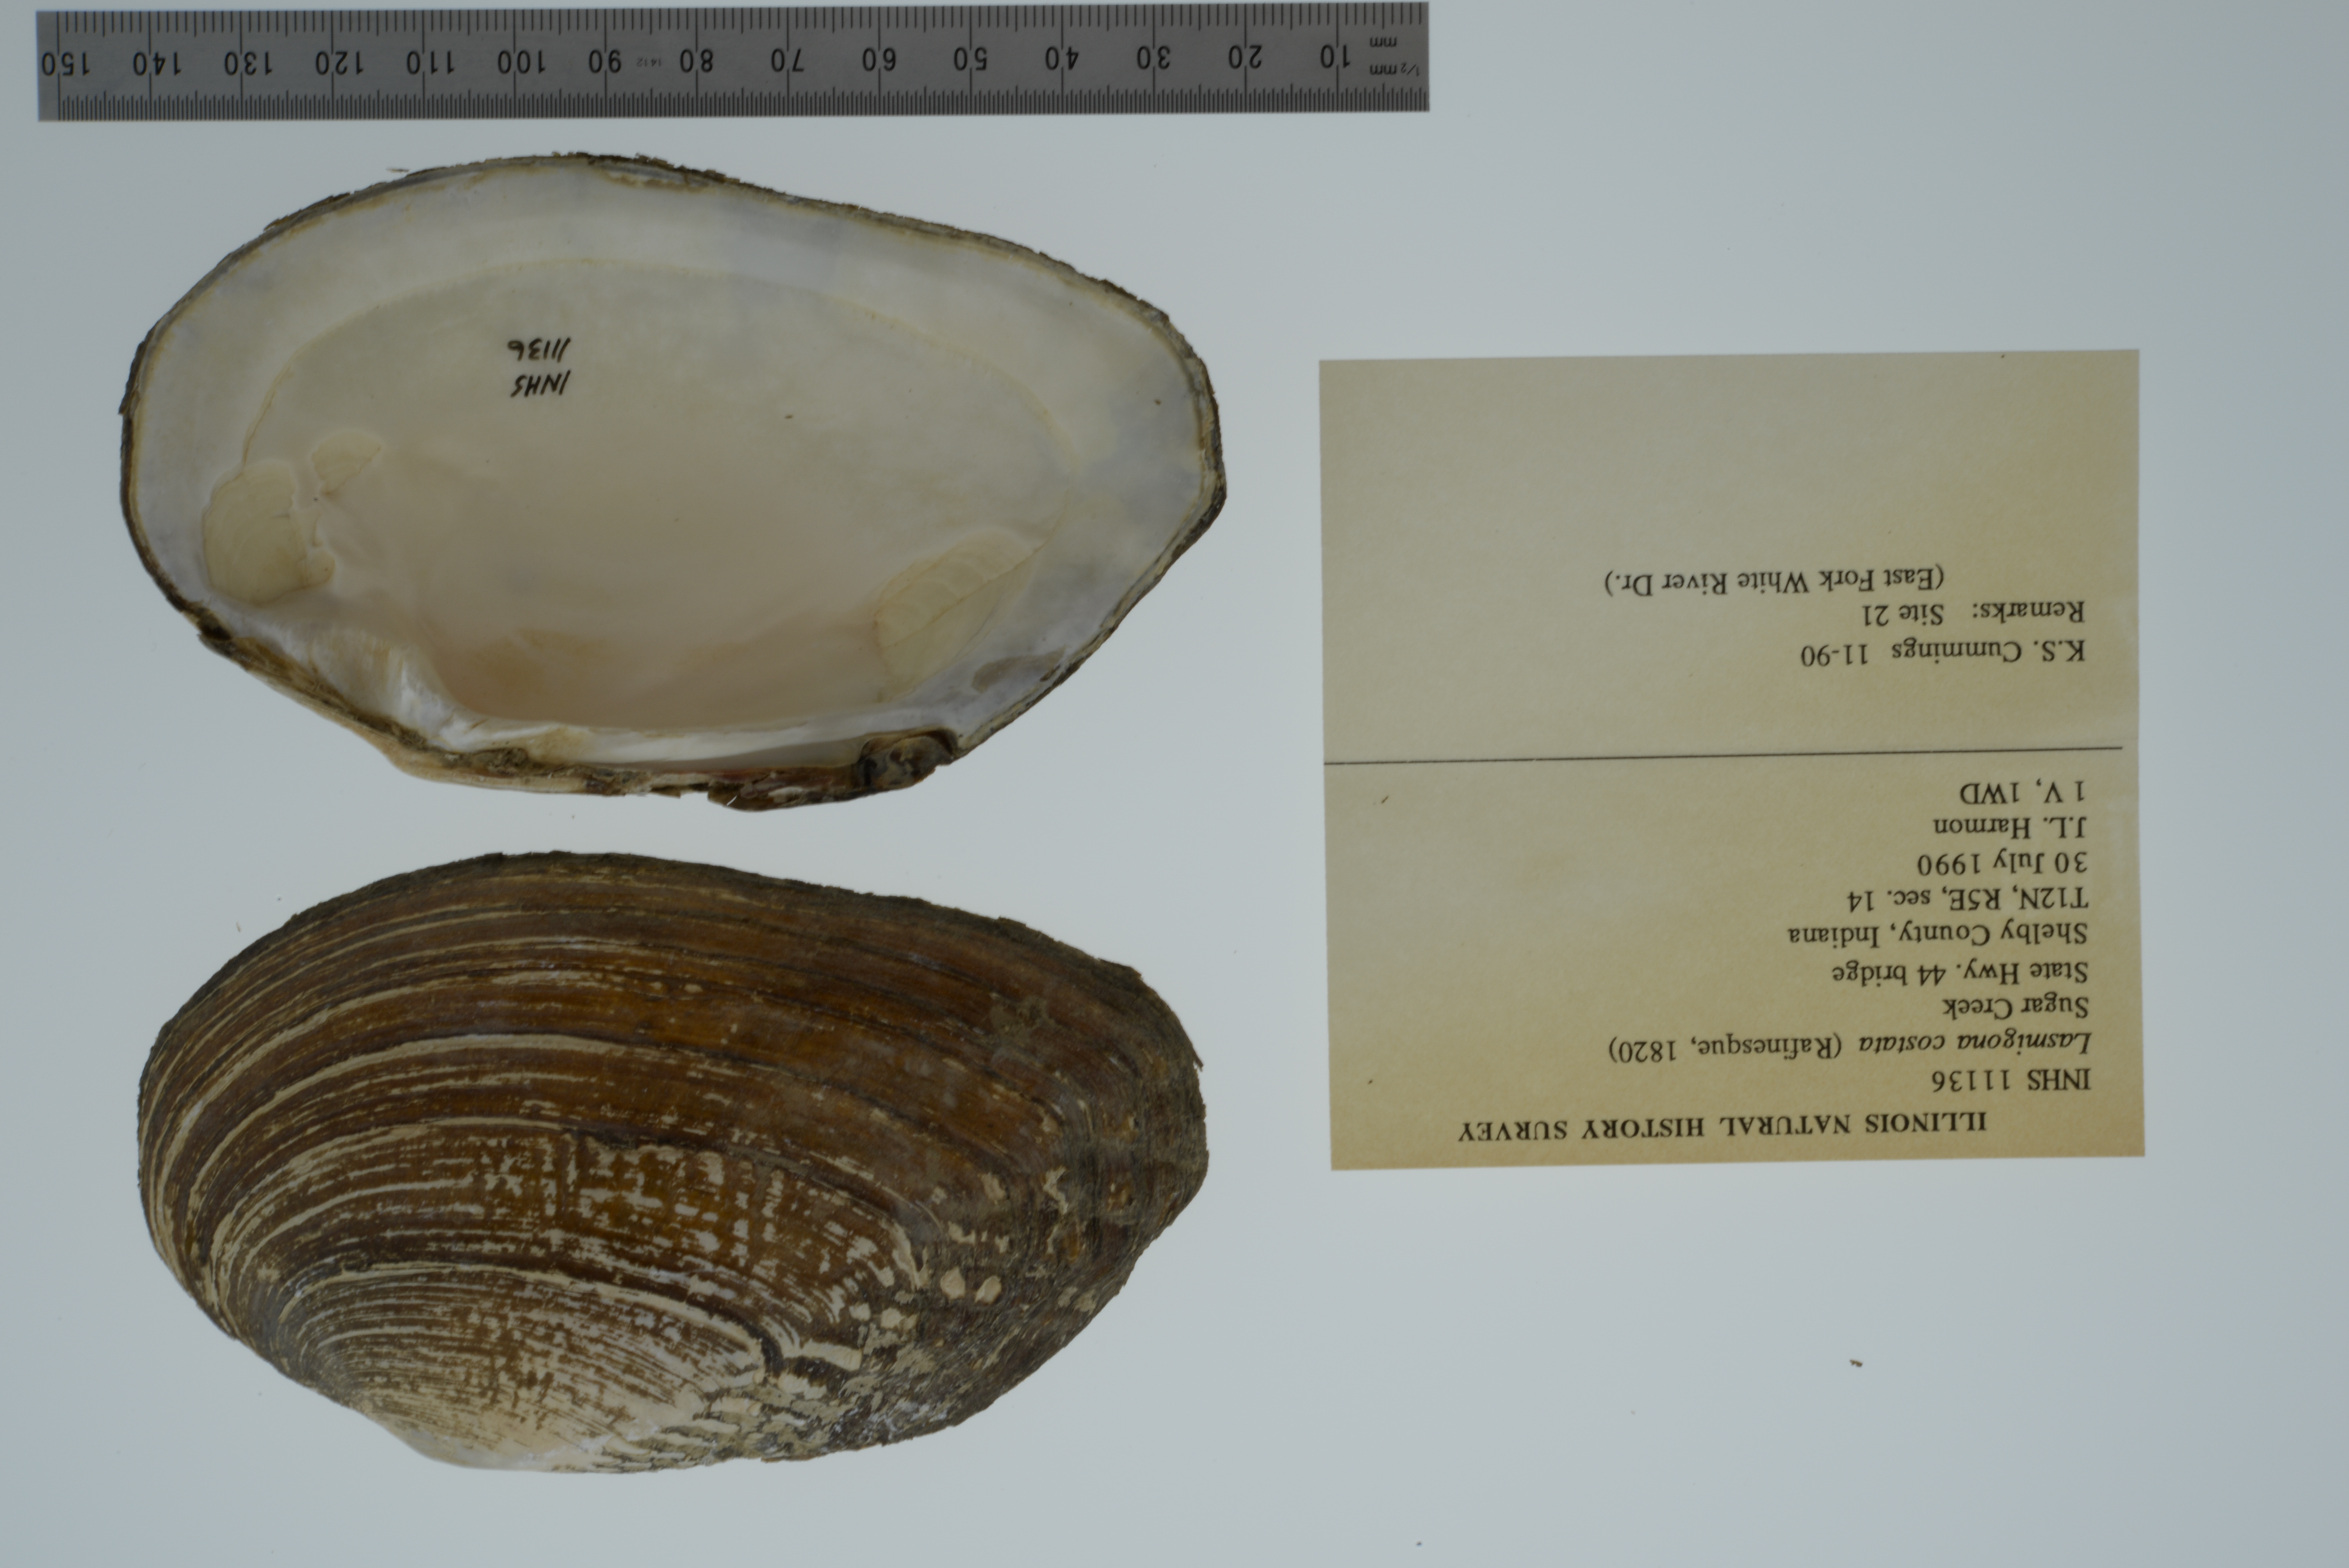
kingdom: Animalia
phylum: Mollusca
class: Bivalvia
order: Unionida
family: Unionidae
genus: Lasmigona
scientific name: Lasmigona costata
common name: Flutedshell
